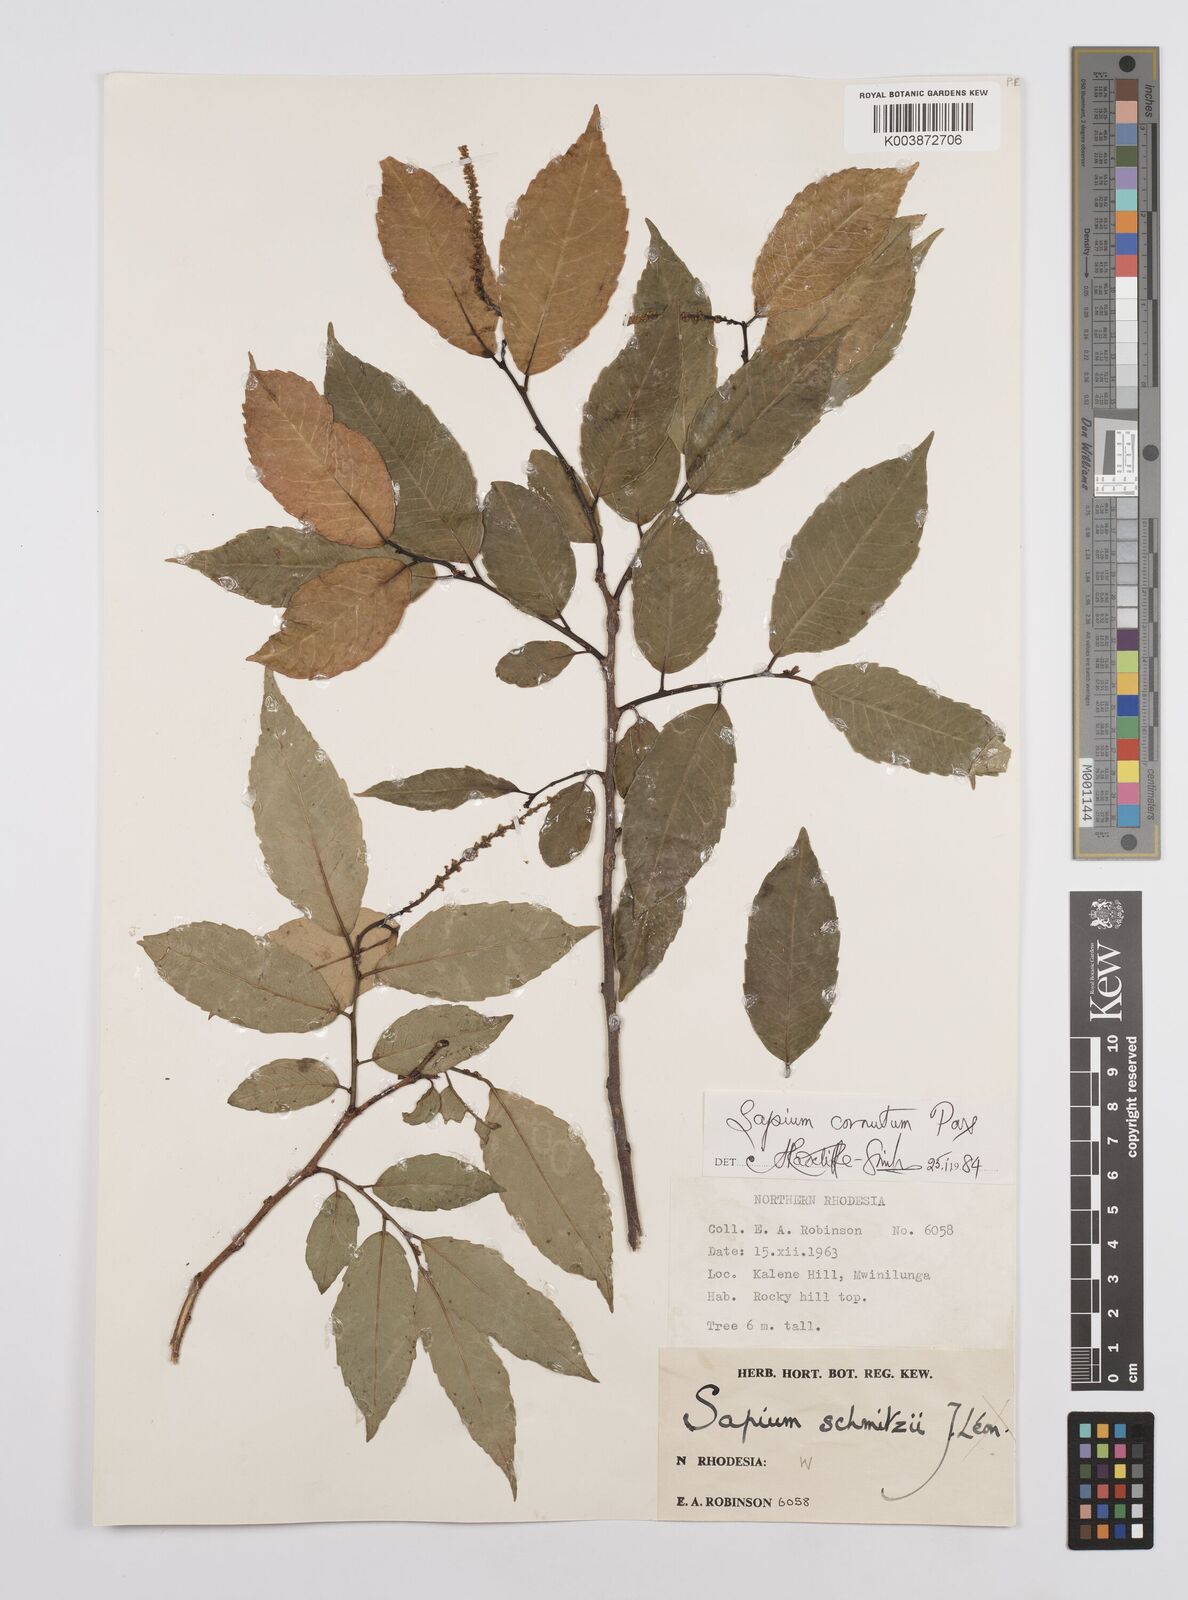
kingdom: Plantae
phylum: Tracheophyta
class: Magnoliopsida
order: Malpighiales
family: Euphorbiaceae
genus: Sclerocroton
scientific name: Sclerocroton cornutus
